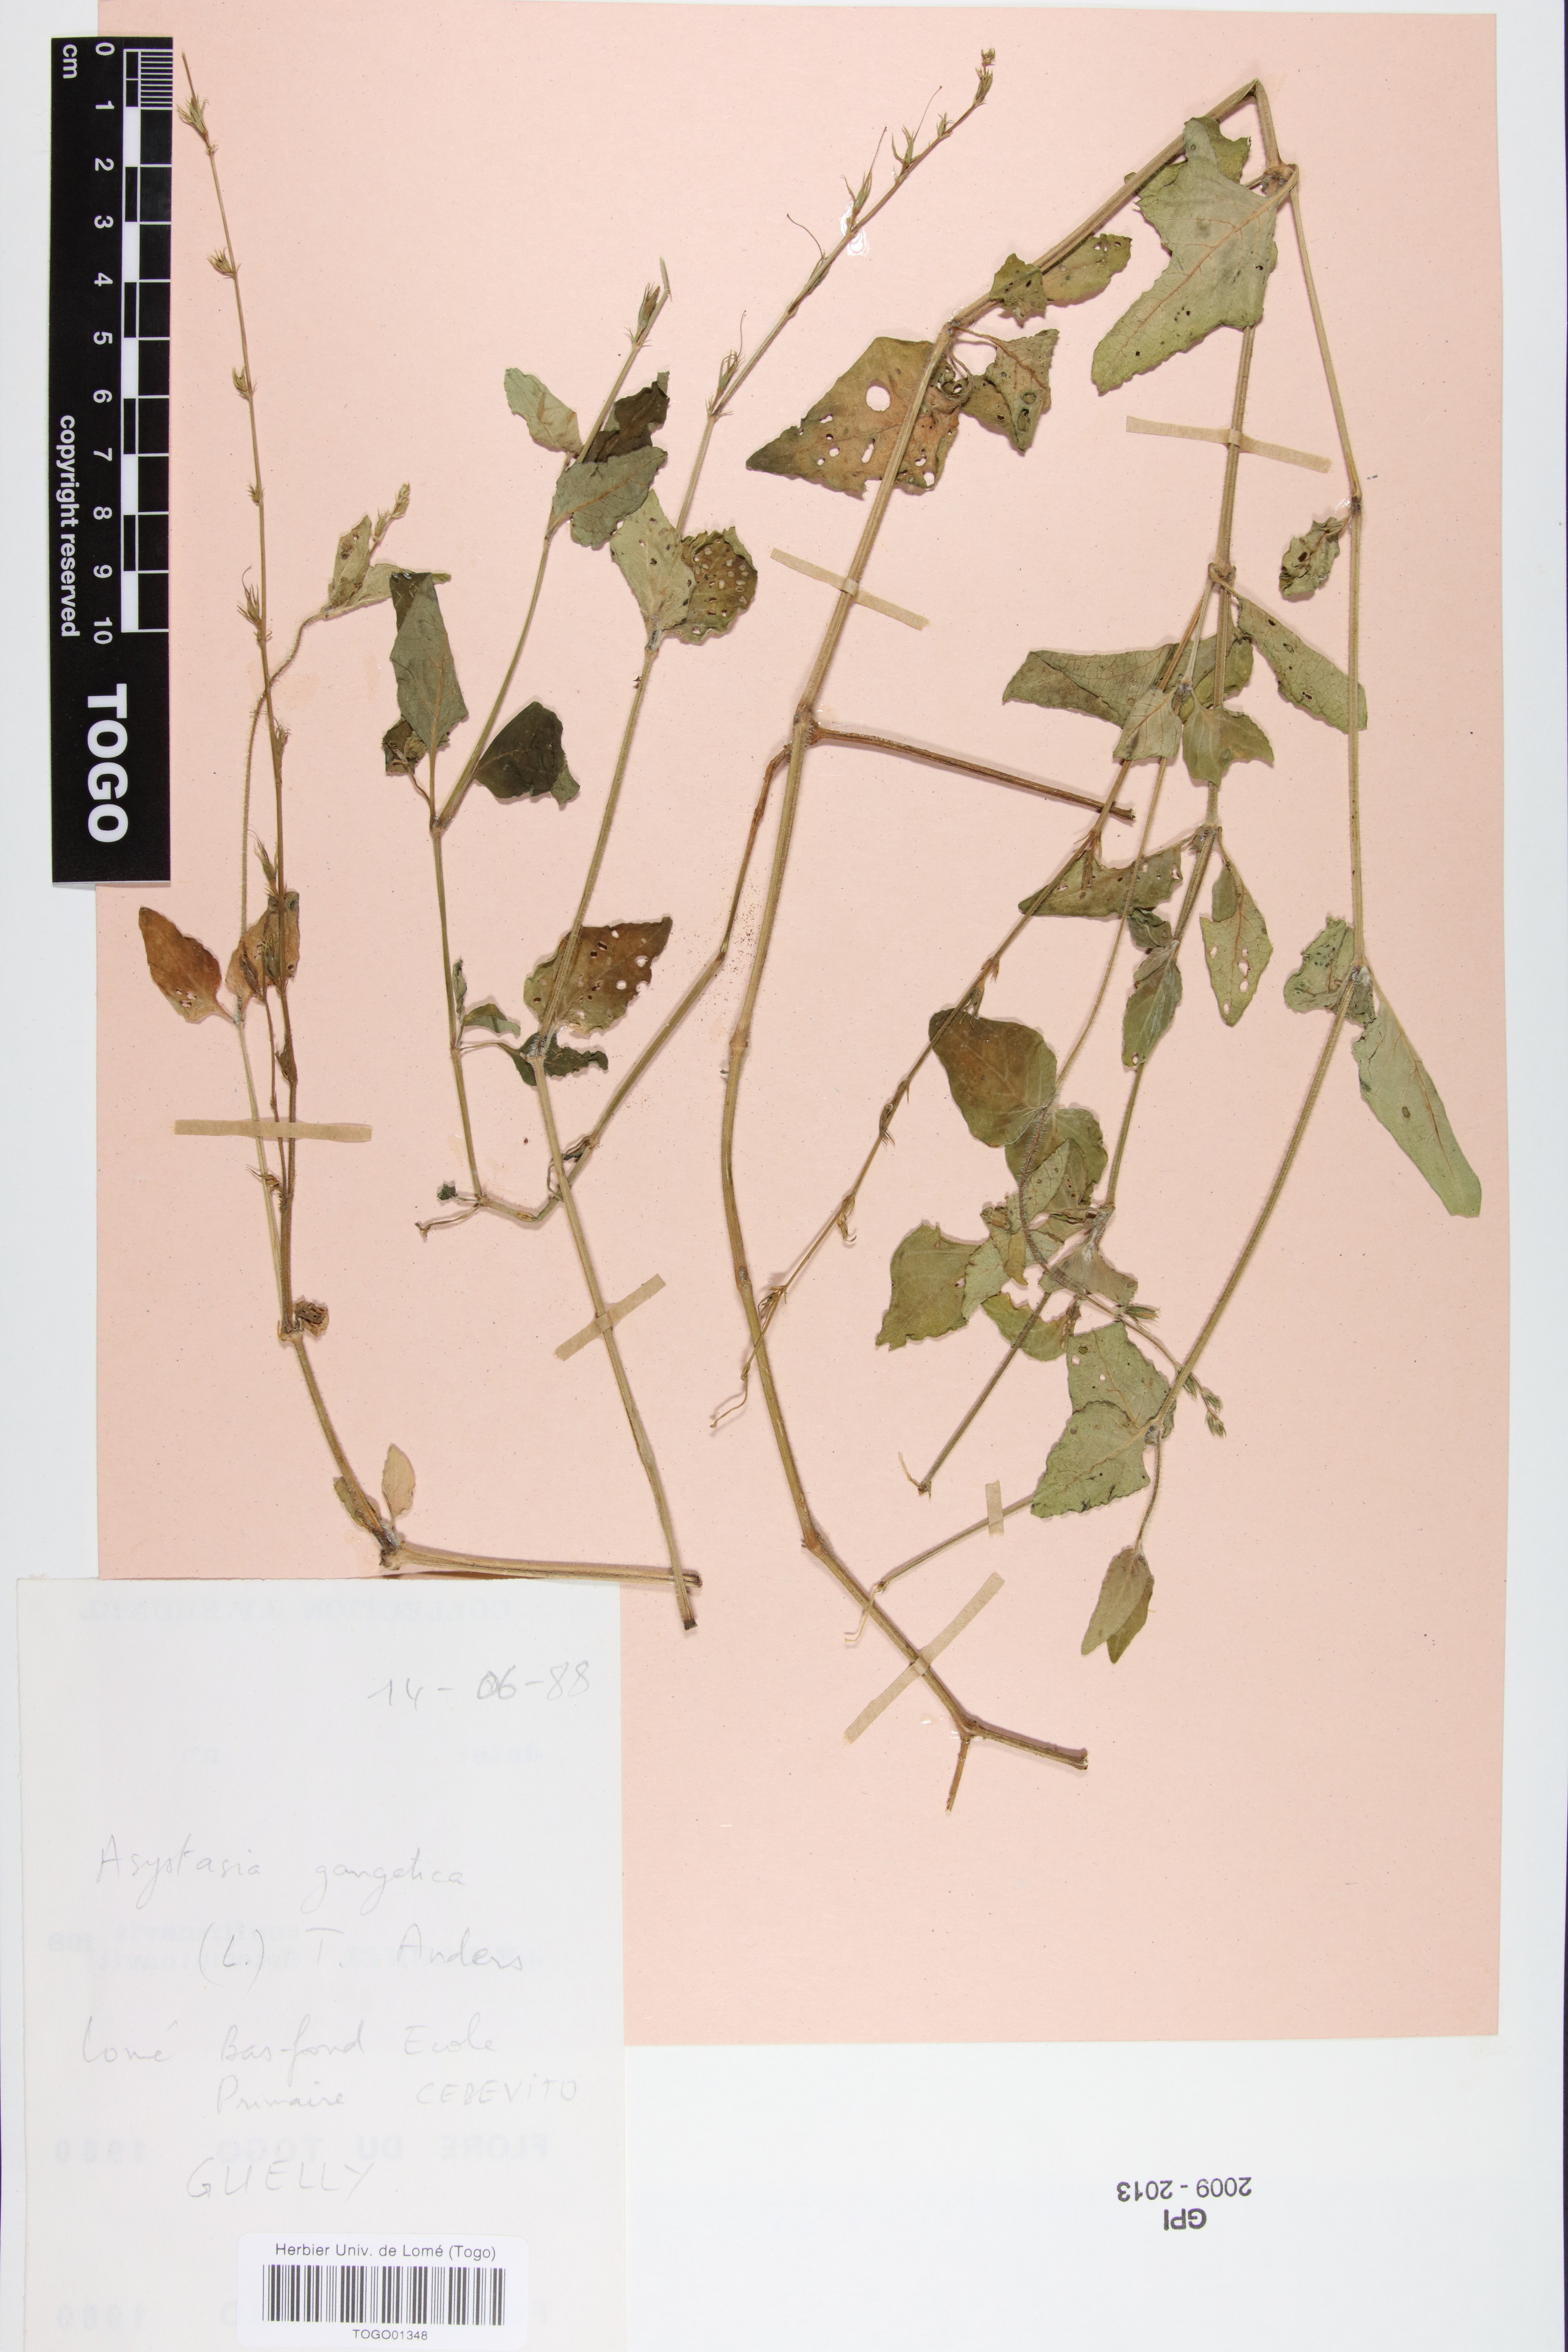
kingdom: Plantae
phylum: Tracheophyta
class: Magnoliopsida
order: Lamiales
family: Acanthaceae
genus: Asystasia
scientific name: Asystasia gangetica
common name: Chinese violet
